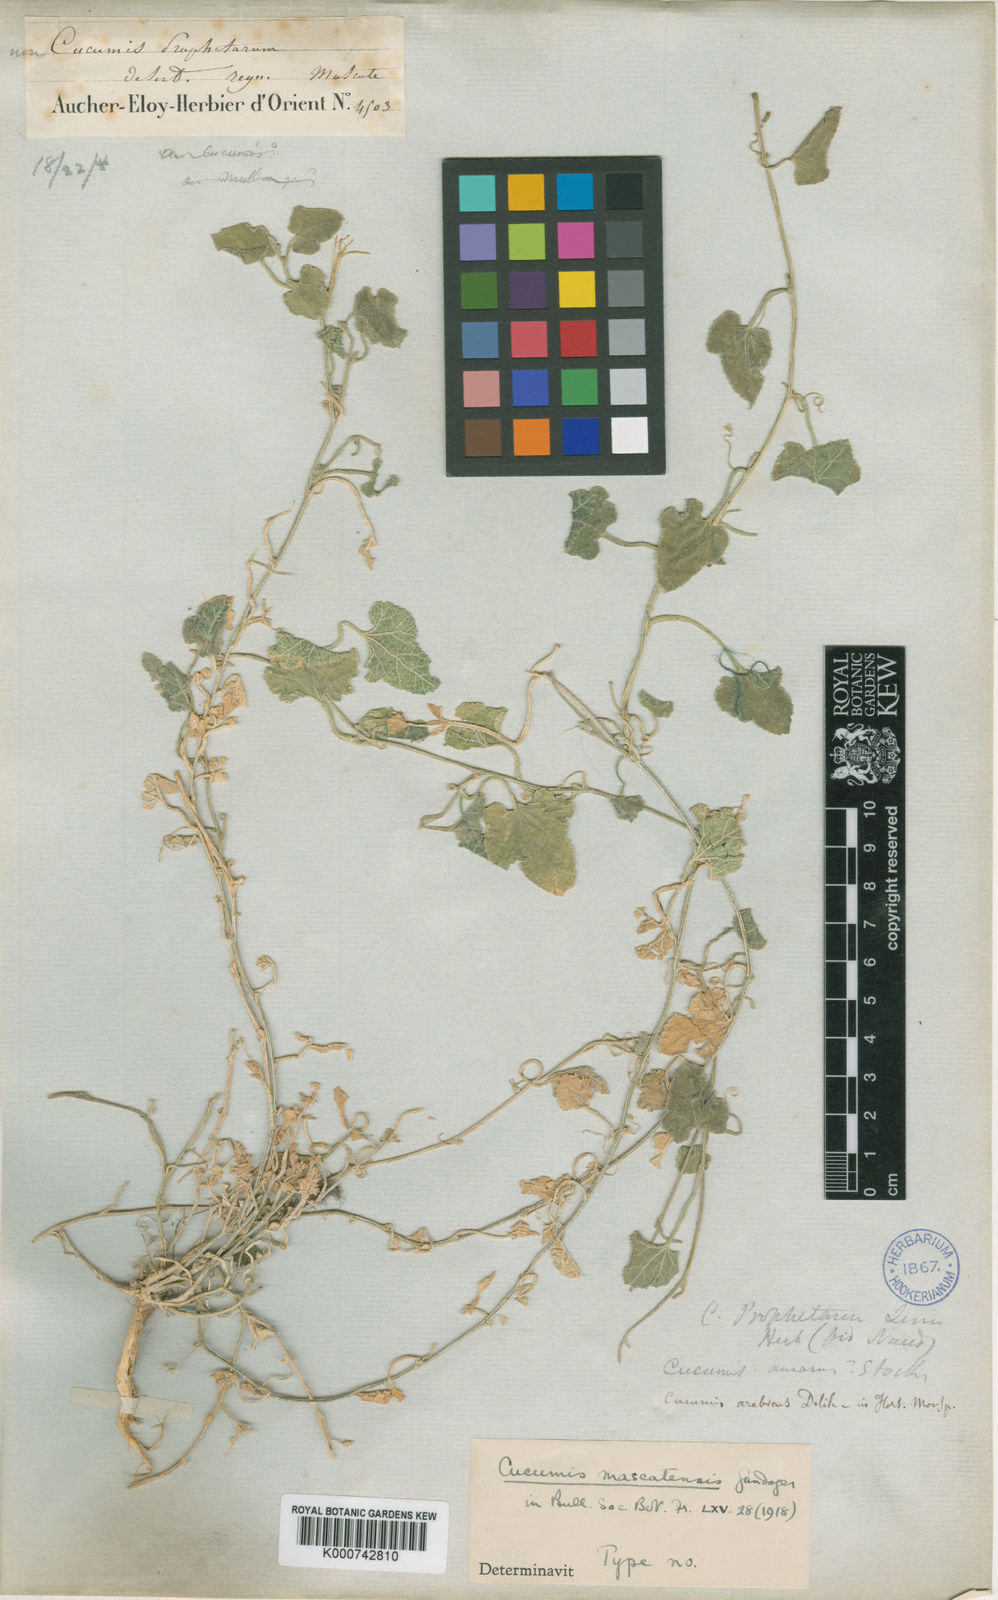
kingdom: Plantae
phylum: Tracheophyta
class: Magnoliopsida
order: Cucurbitales
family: Cucurbitaceae
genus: Cucumis
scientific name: Cucumis prophetarum
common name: Wild cucumber
